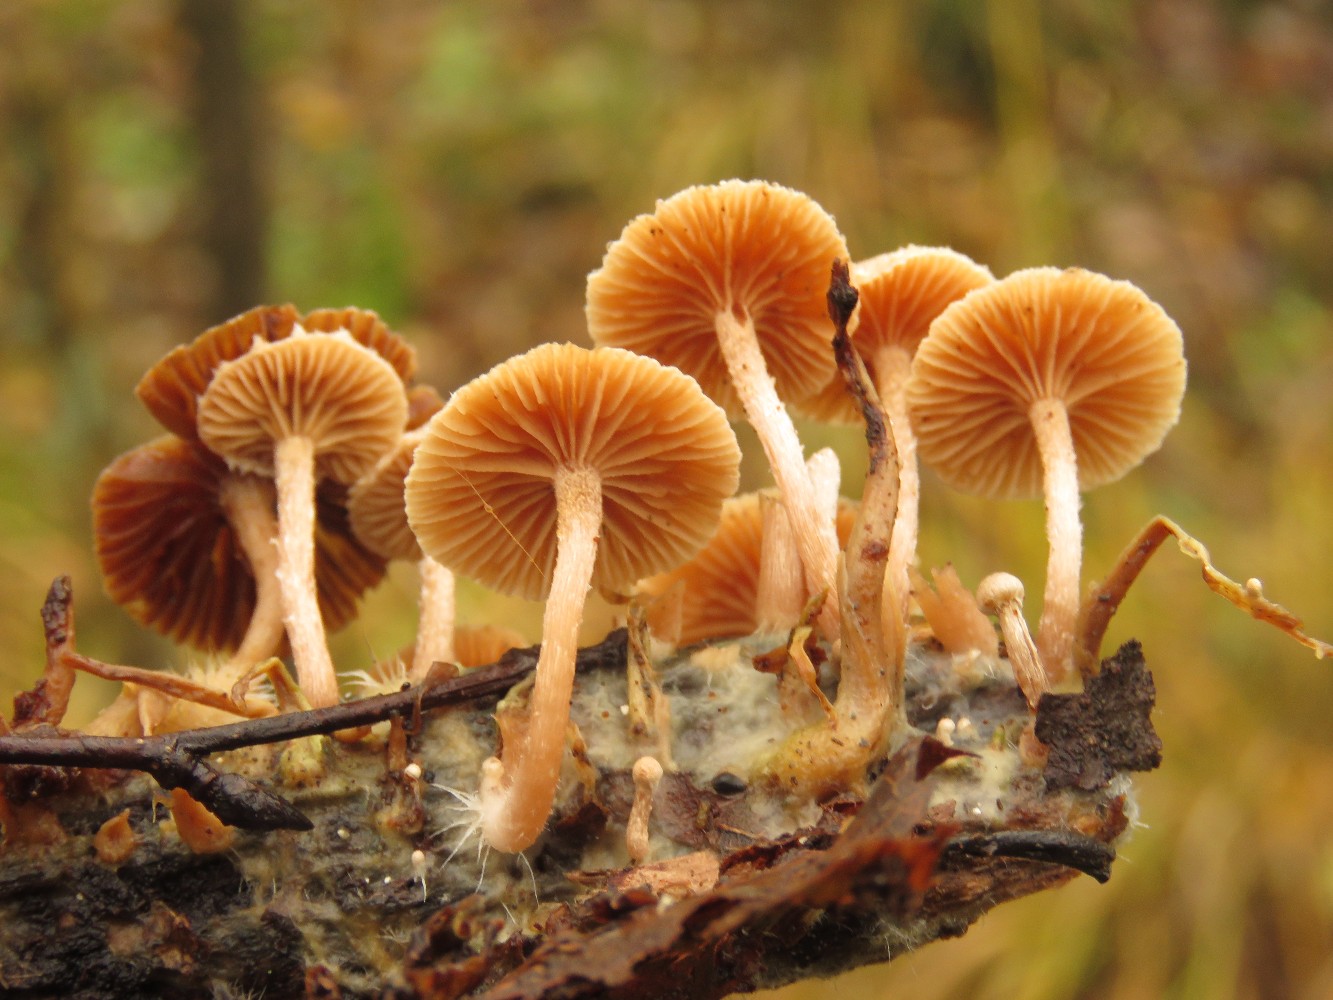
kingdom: Fungi
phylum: Basidiomycota
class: Agaricomycetes
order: Agaricales
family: Tubariaceae
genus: Tubaria
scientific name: Tubaria furfuracea
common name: kliddet fnughat
